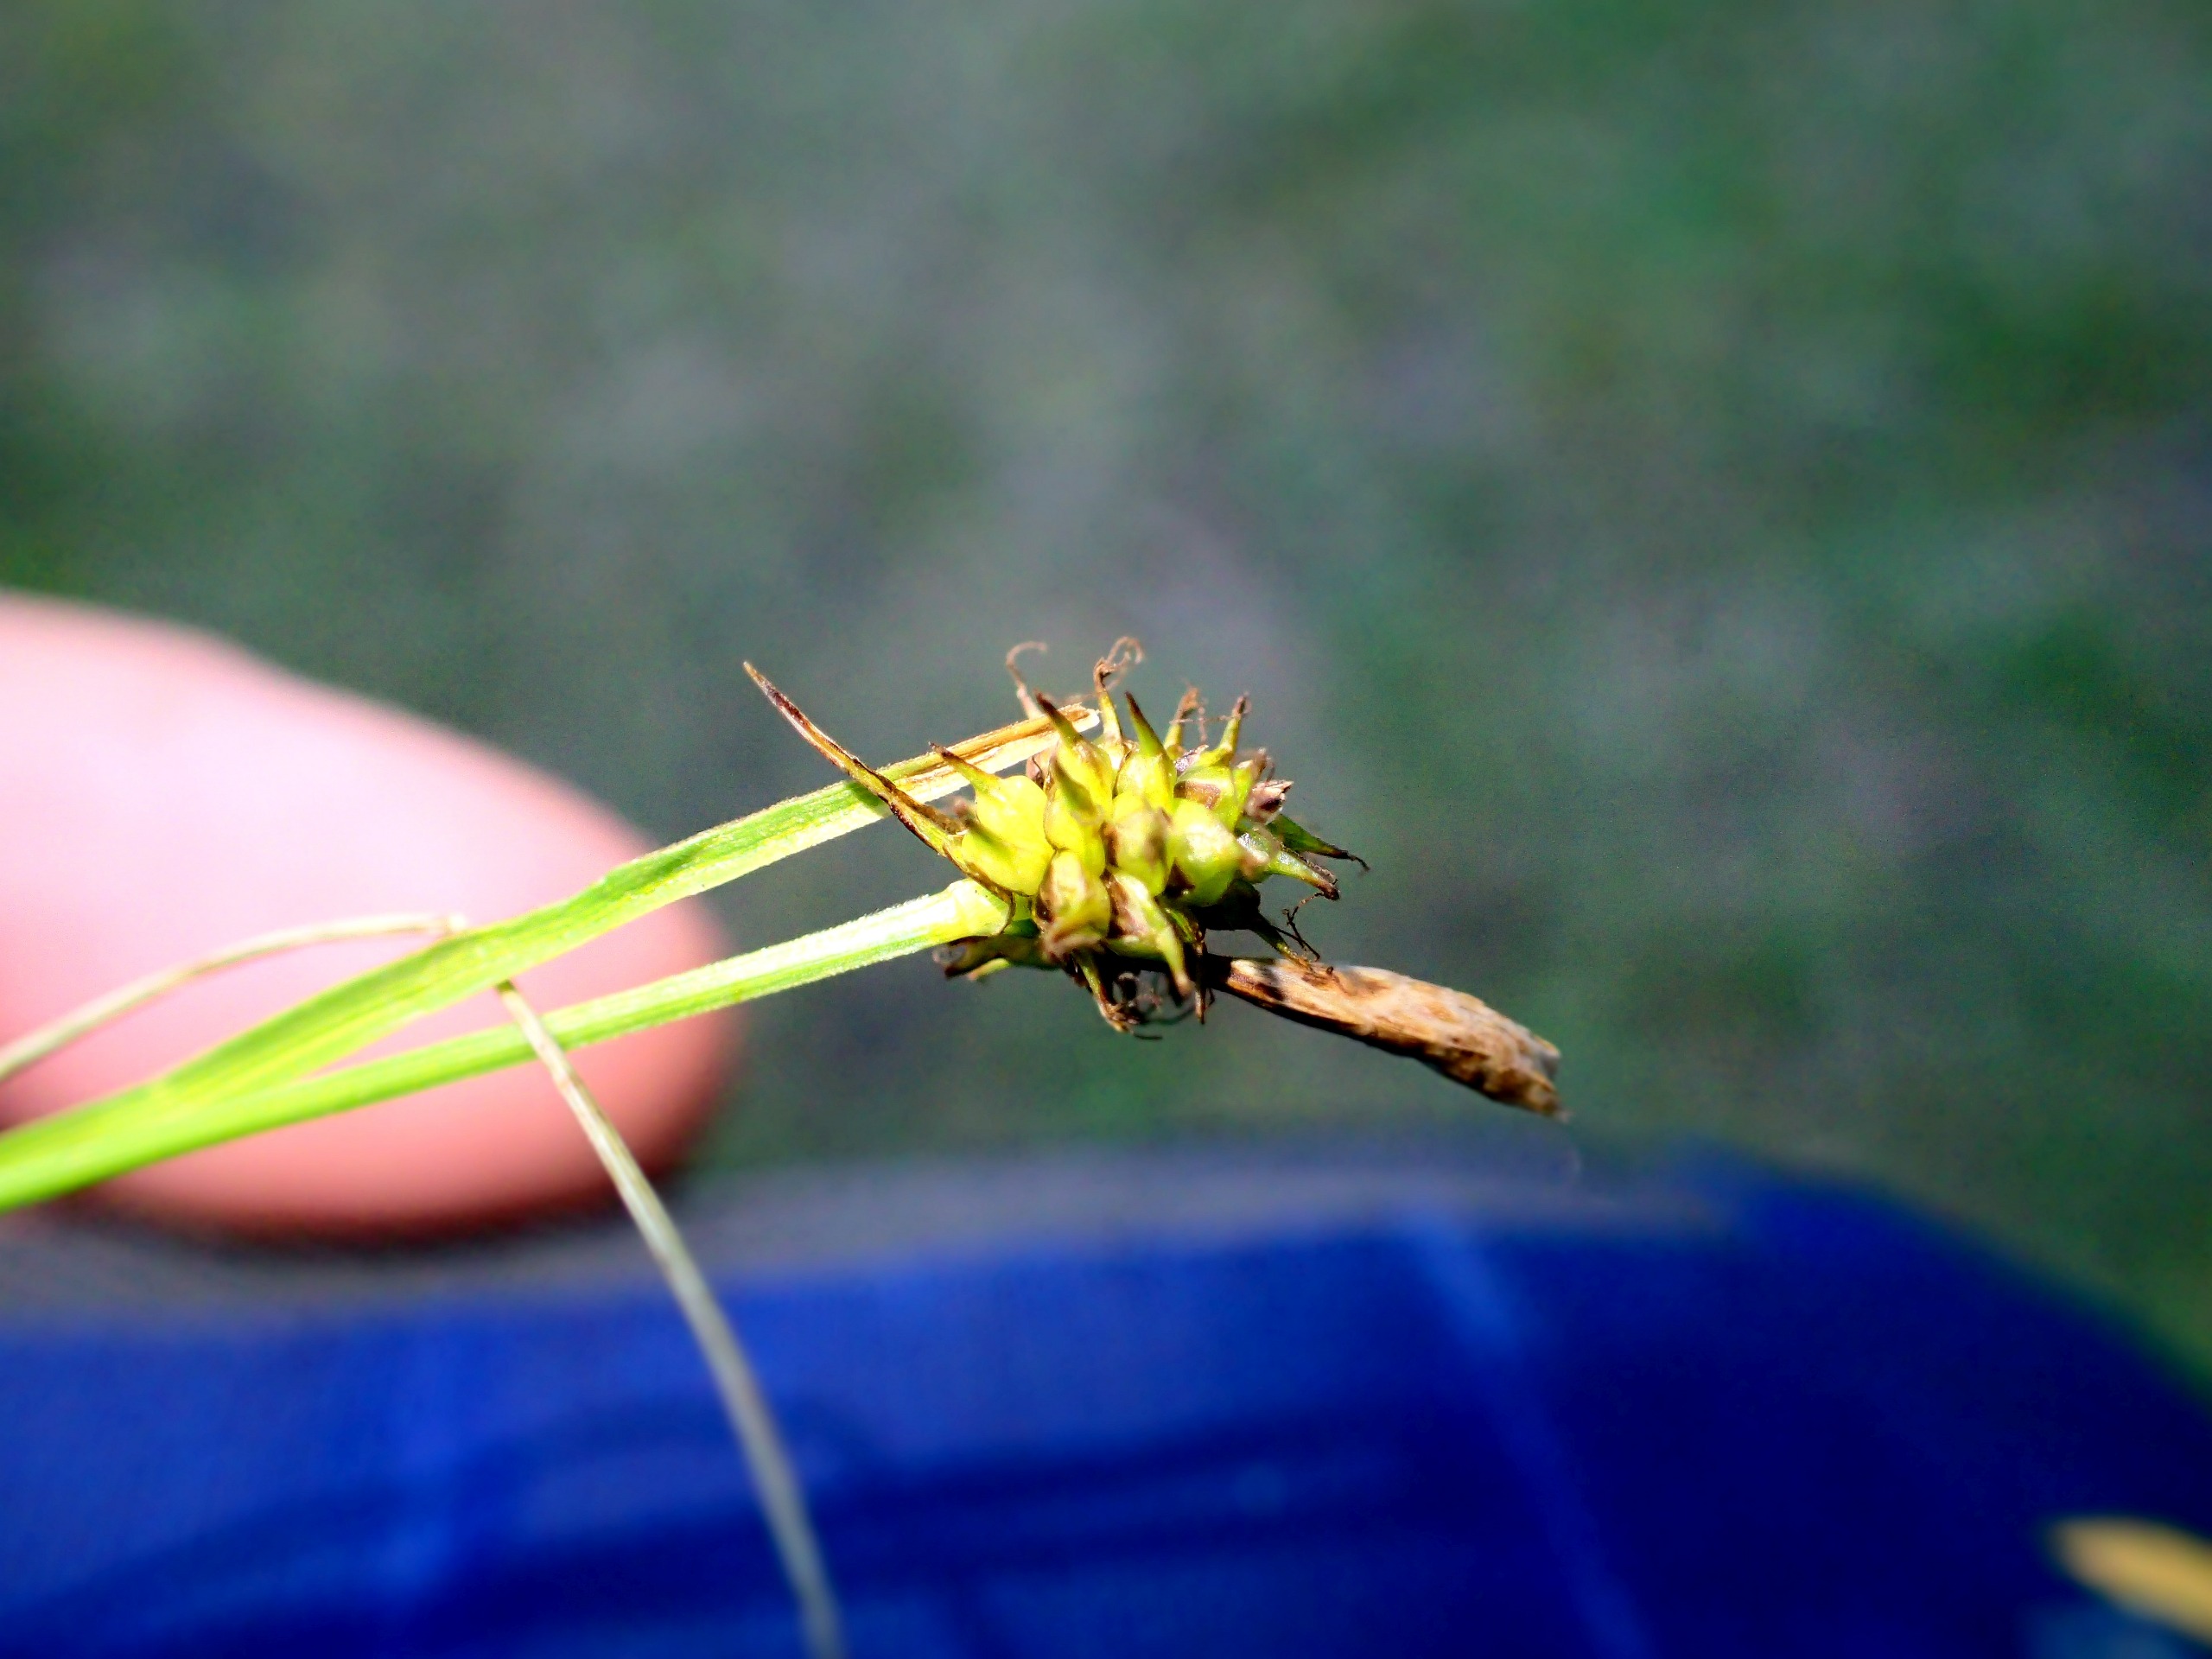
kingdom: Plantae
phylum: Tracheophyta
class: Liliopsida
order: Poales
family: Cyperaceae
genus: Carex
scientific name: Carex lepidocarpa
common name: Krognæb-star
